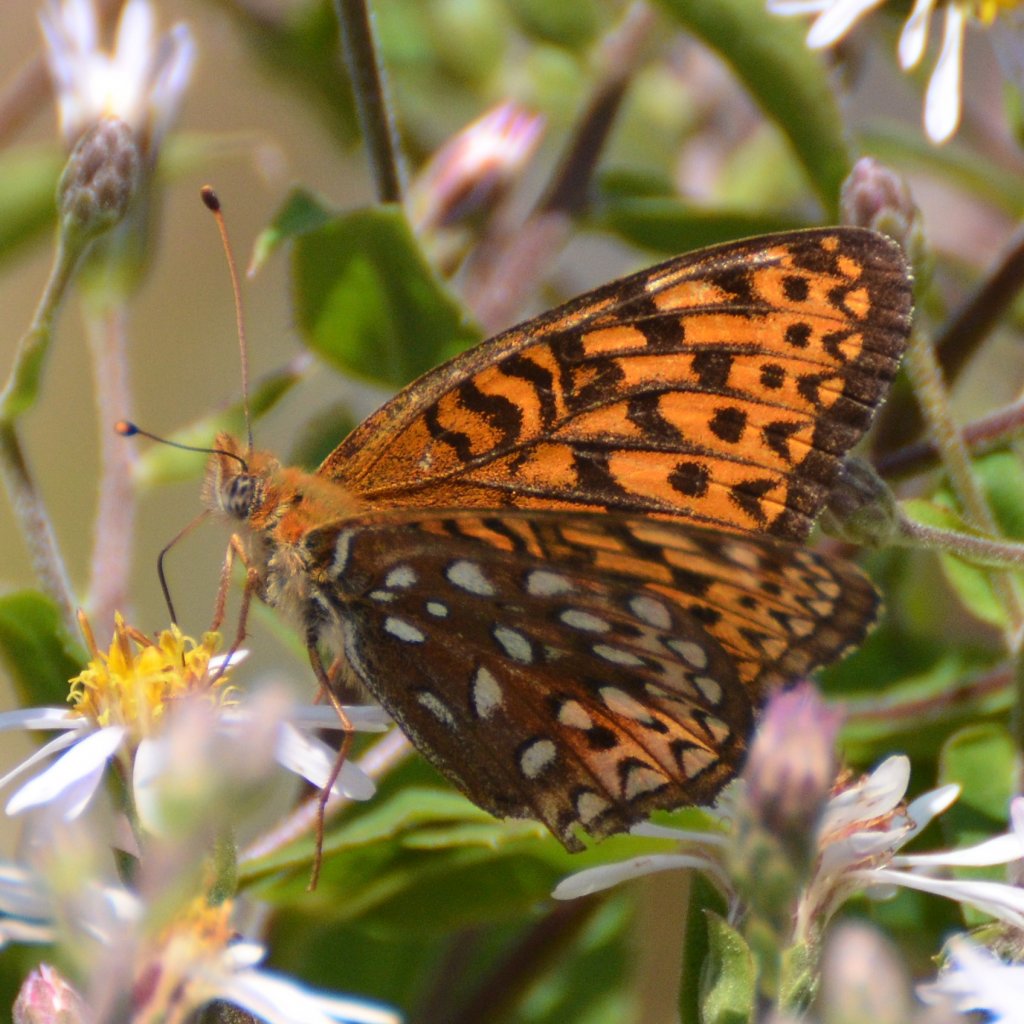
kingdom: Animalia
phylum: Arthropoda
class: Insecta
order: Lepidoptera
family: Nymphalidae
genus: Speyeria
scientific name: Speyeria atlantis
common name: Atlantis Fritillary
